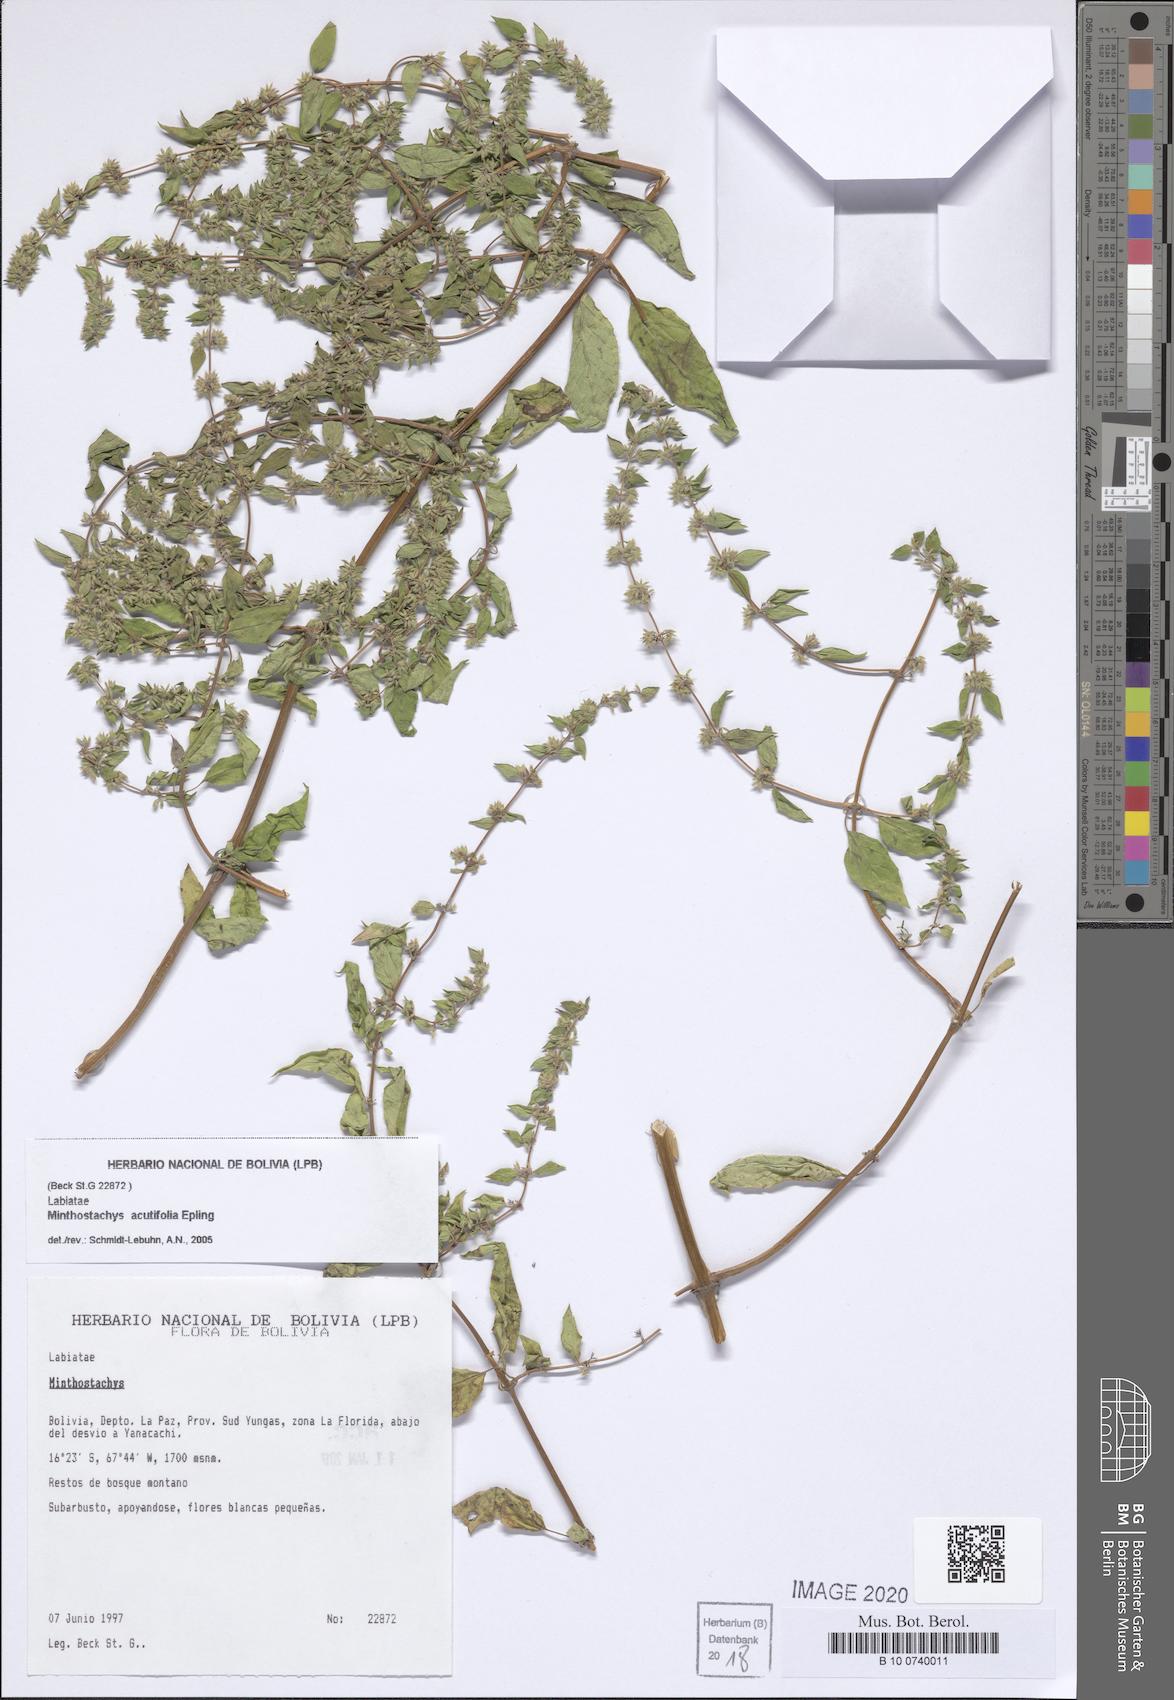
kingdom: Plantae
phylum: Tracheophyta
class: Magnoliopsida
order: Lamiales
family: Lamiaceae
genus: Minthostachys
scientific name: Minthostachys acutifolia
